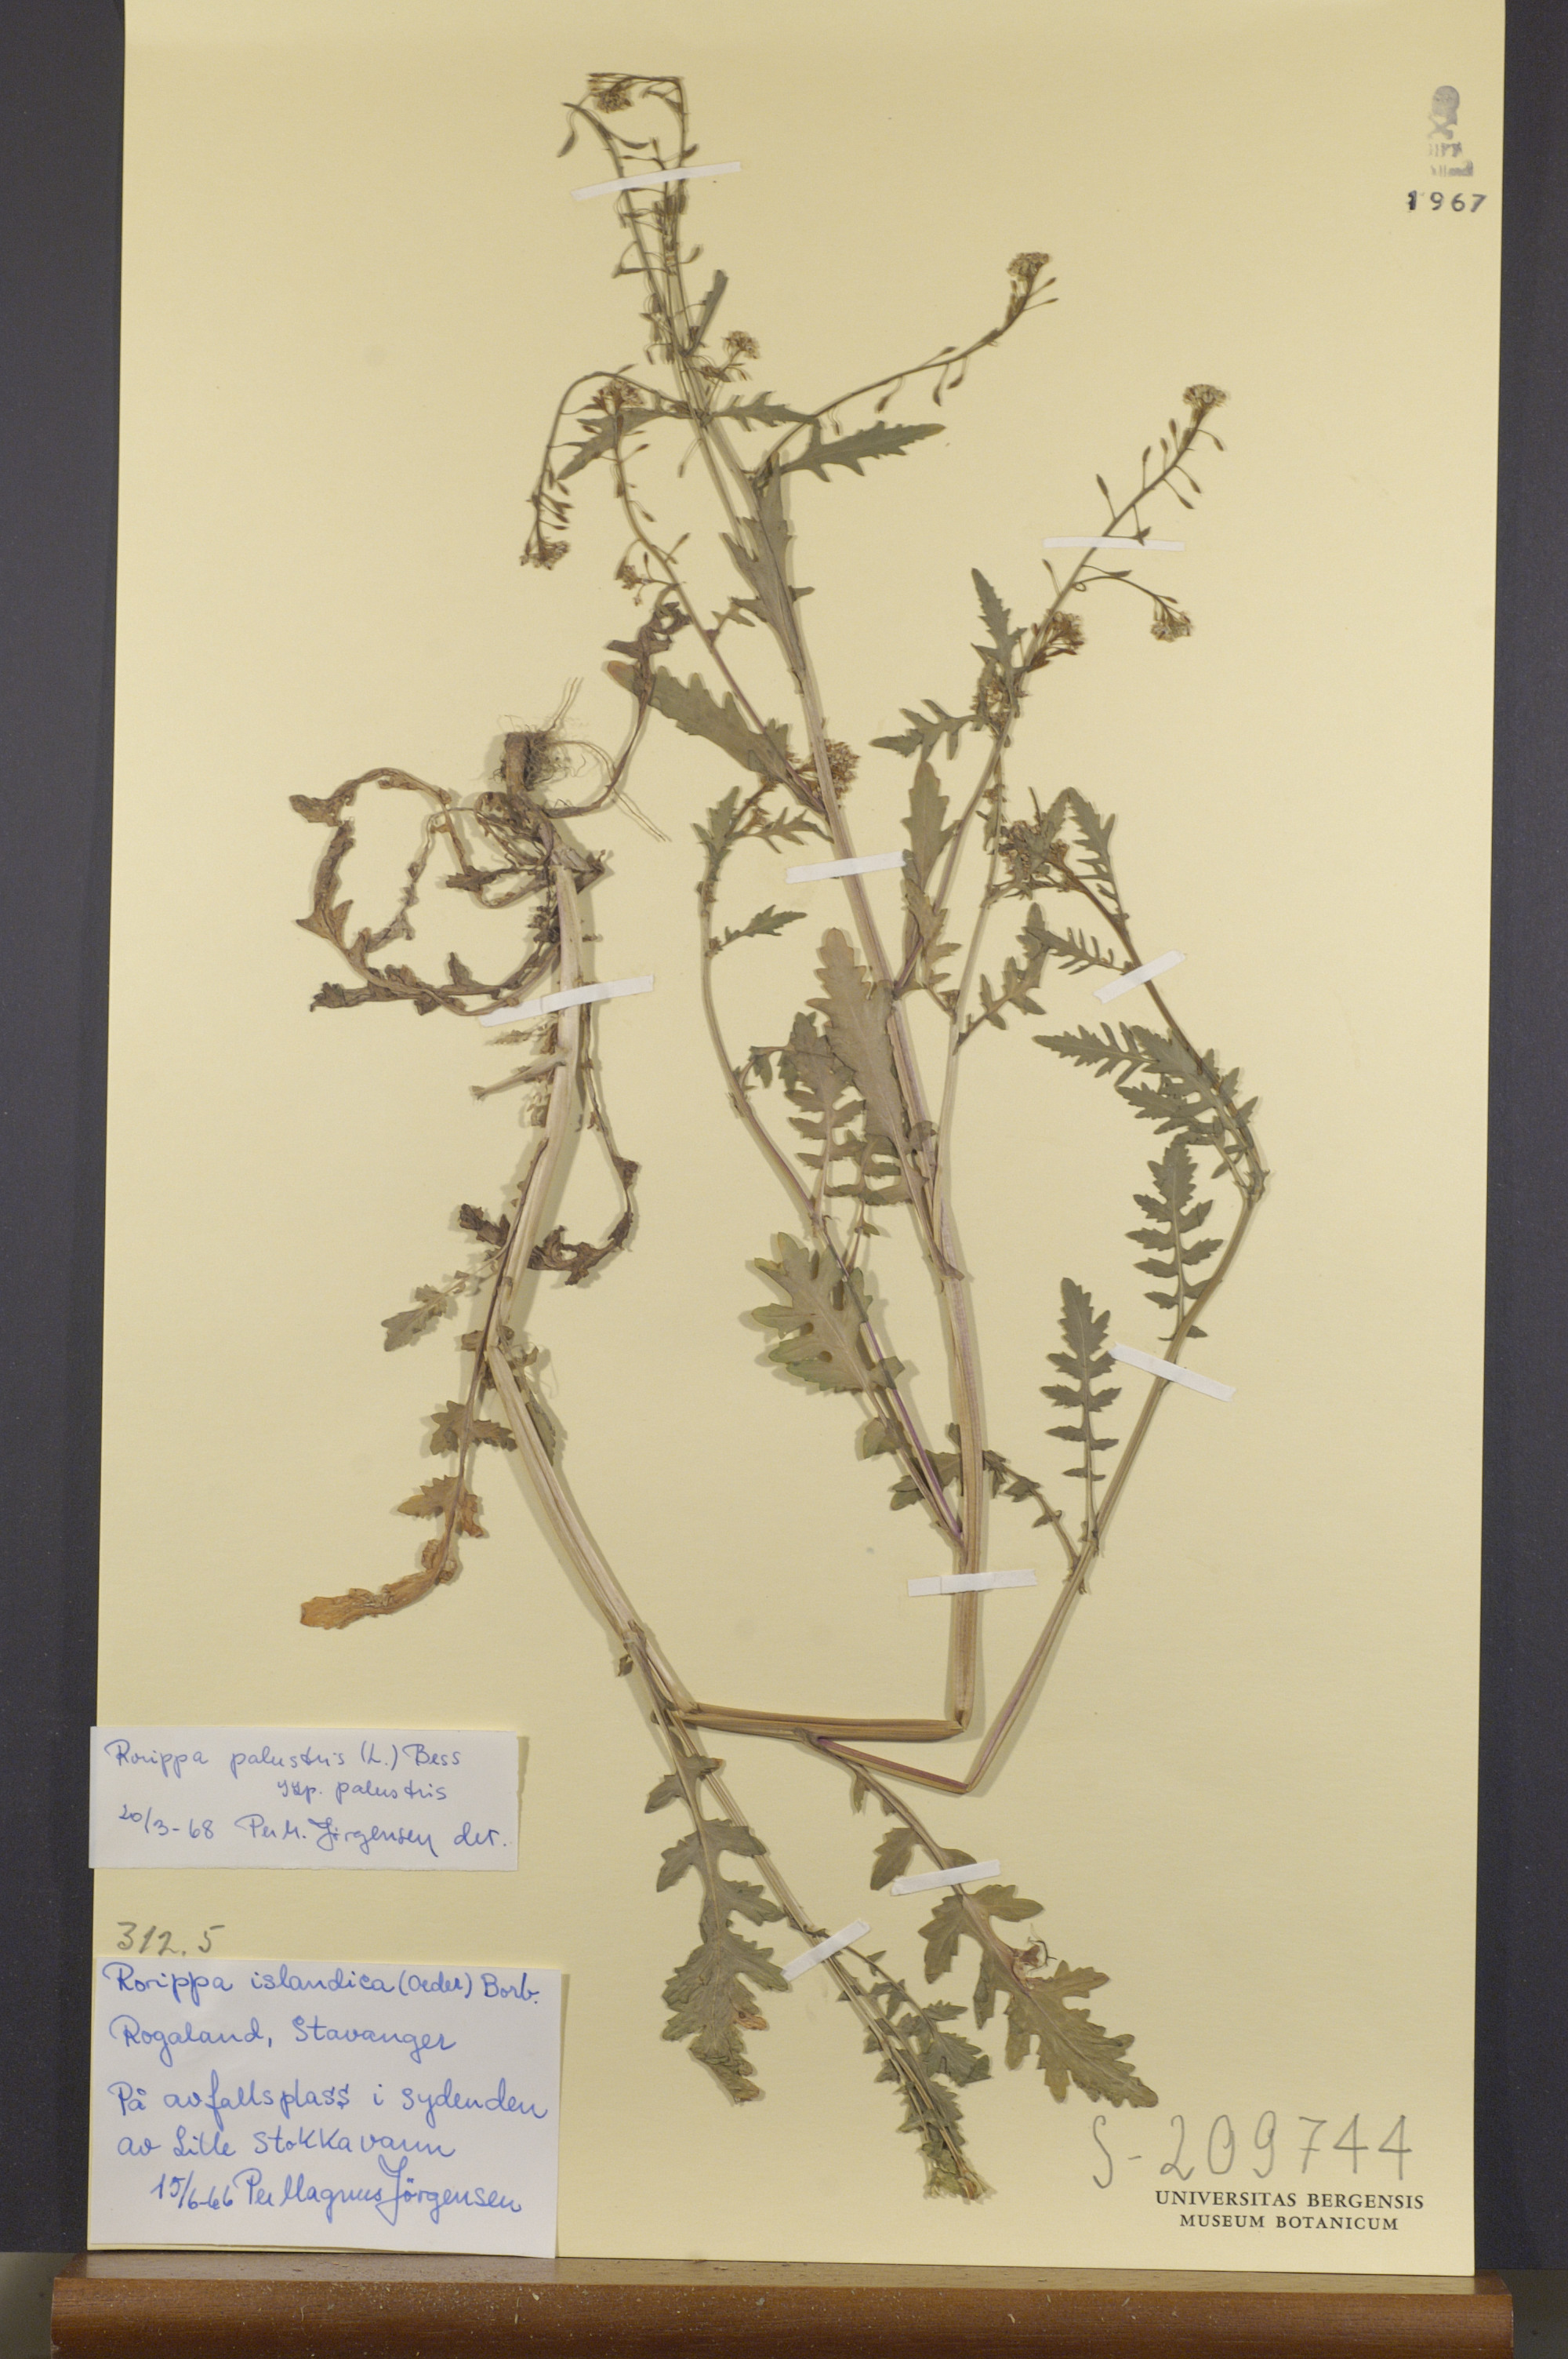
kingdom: Plantae
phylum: Tracheophyta
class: Magnoliopsida
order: Brassicales
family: Brassicaceae
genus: Rorippa
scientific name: Rorippa palustris
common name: Marsh yellow-cress
